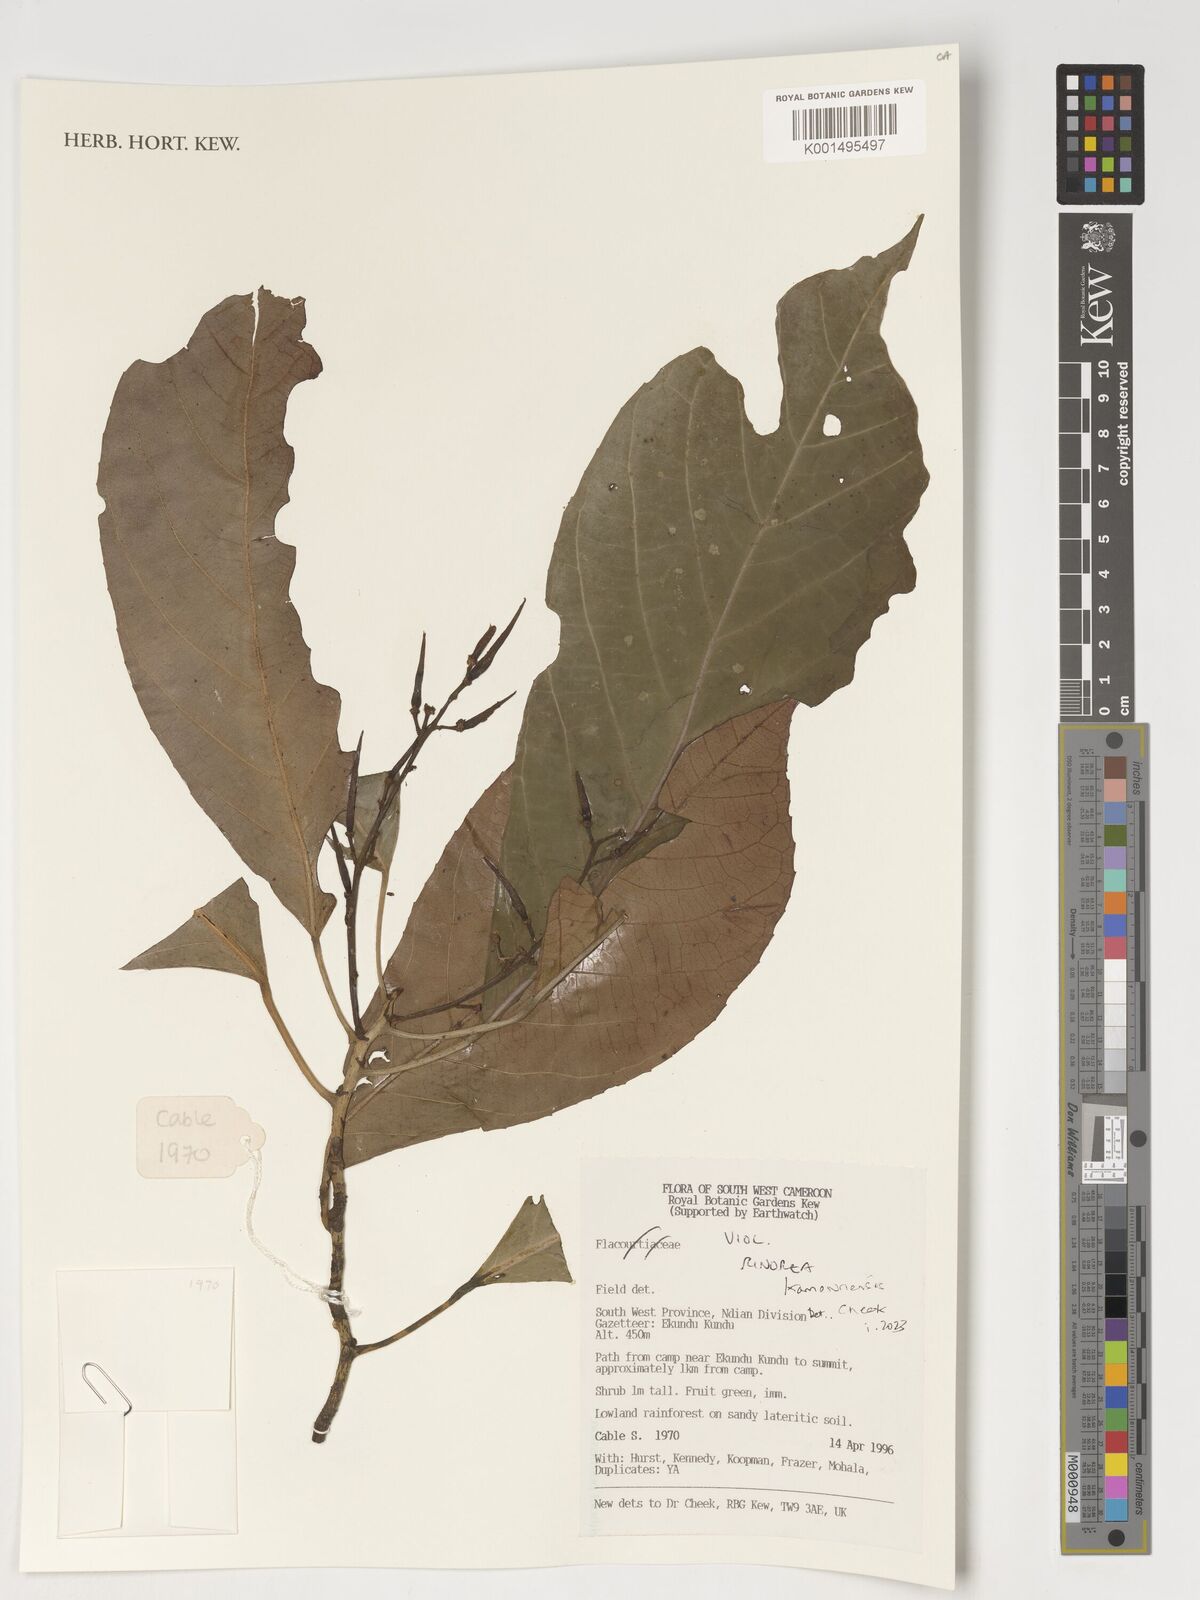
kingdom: Plantae
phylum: Tracheophyta
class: Magnoliopsida
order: Malpighiales
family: Violaceae
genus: Rinorea
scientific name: Rinorea kamerunensis
